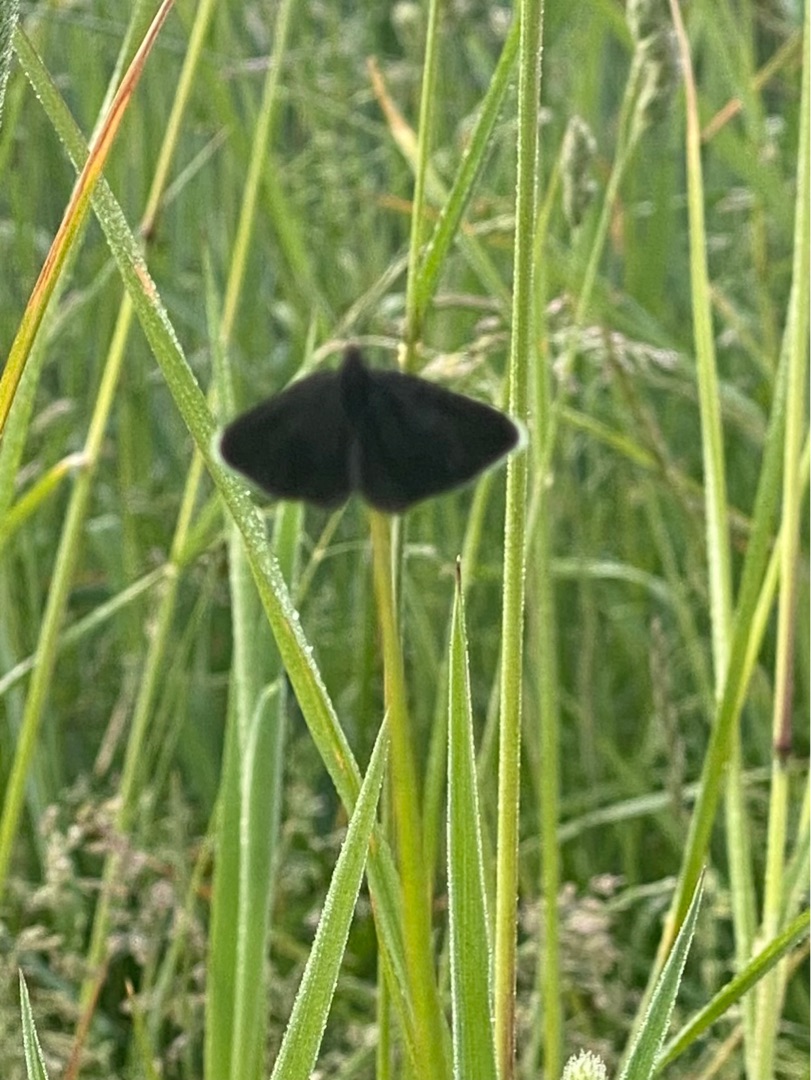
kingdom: Animalia
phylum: Arthropoda
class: Insecta
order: Lepidoptera
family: Geometridae
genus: Odezia
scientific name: Odezia atrata
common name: Sort måler
